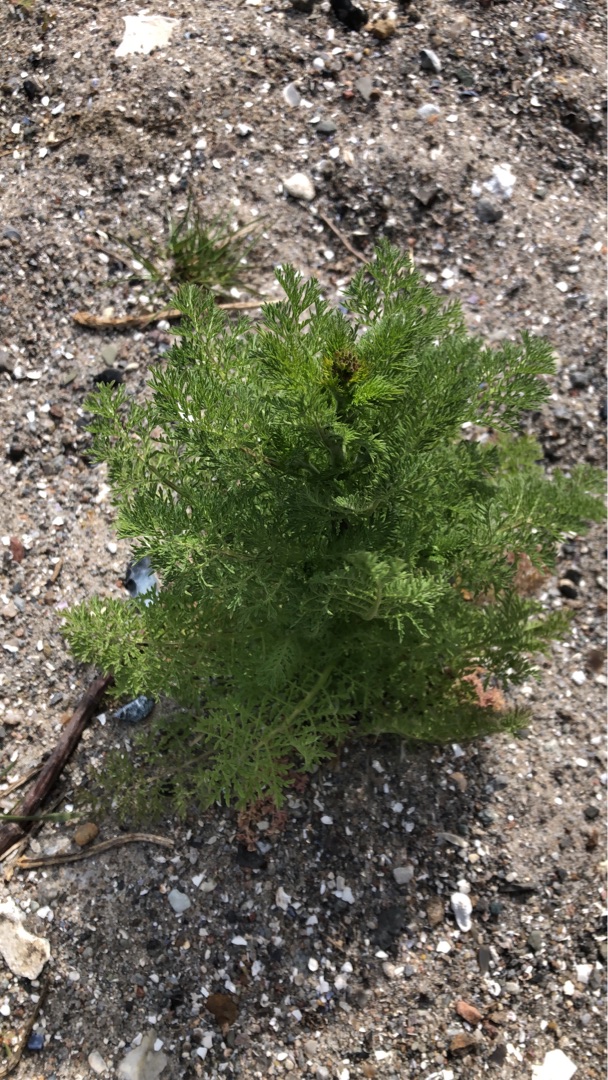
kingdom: Plantae
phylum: Tracheophyta
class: Magnoliopsida
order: Brassicales
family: Brassicaceae
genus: Descurainia
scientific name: Descurainia sophia
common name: Finbladet vejsennep
